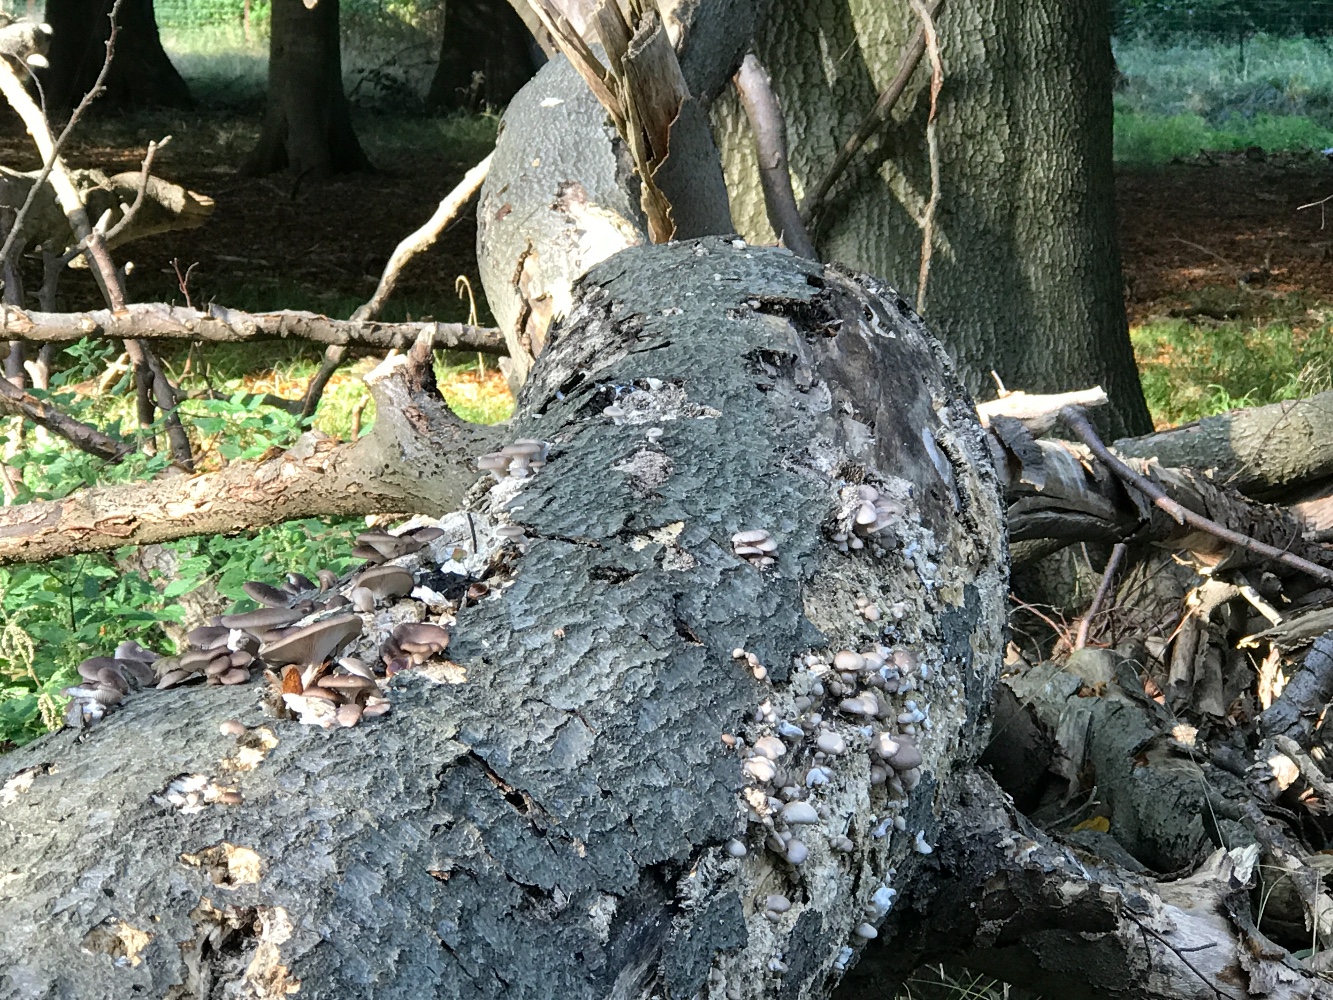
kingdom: Fungi
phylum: Basidiomycota
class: Agaricomycetes
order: Agaricales
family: Pleurotaceae
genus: Pleurotus
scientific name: Pleurotus ostreatus
